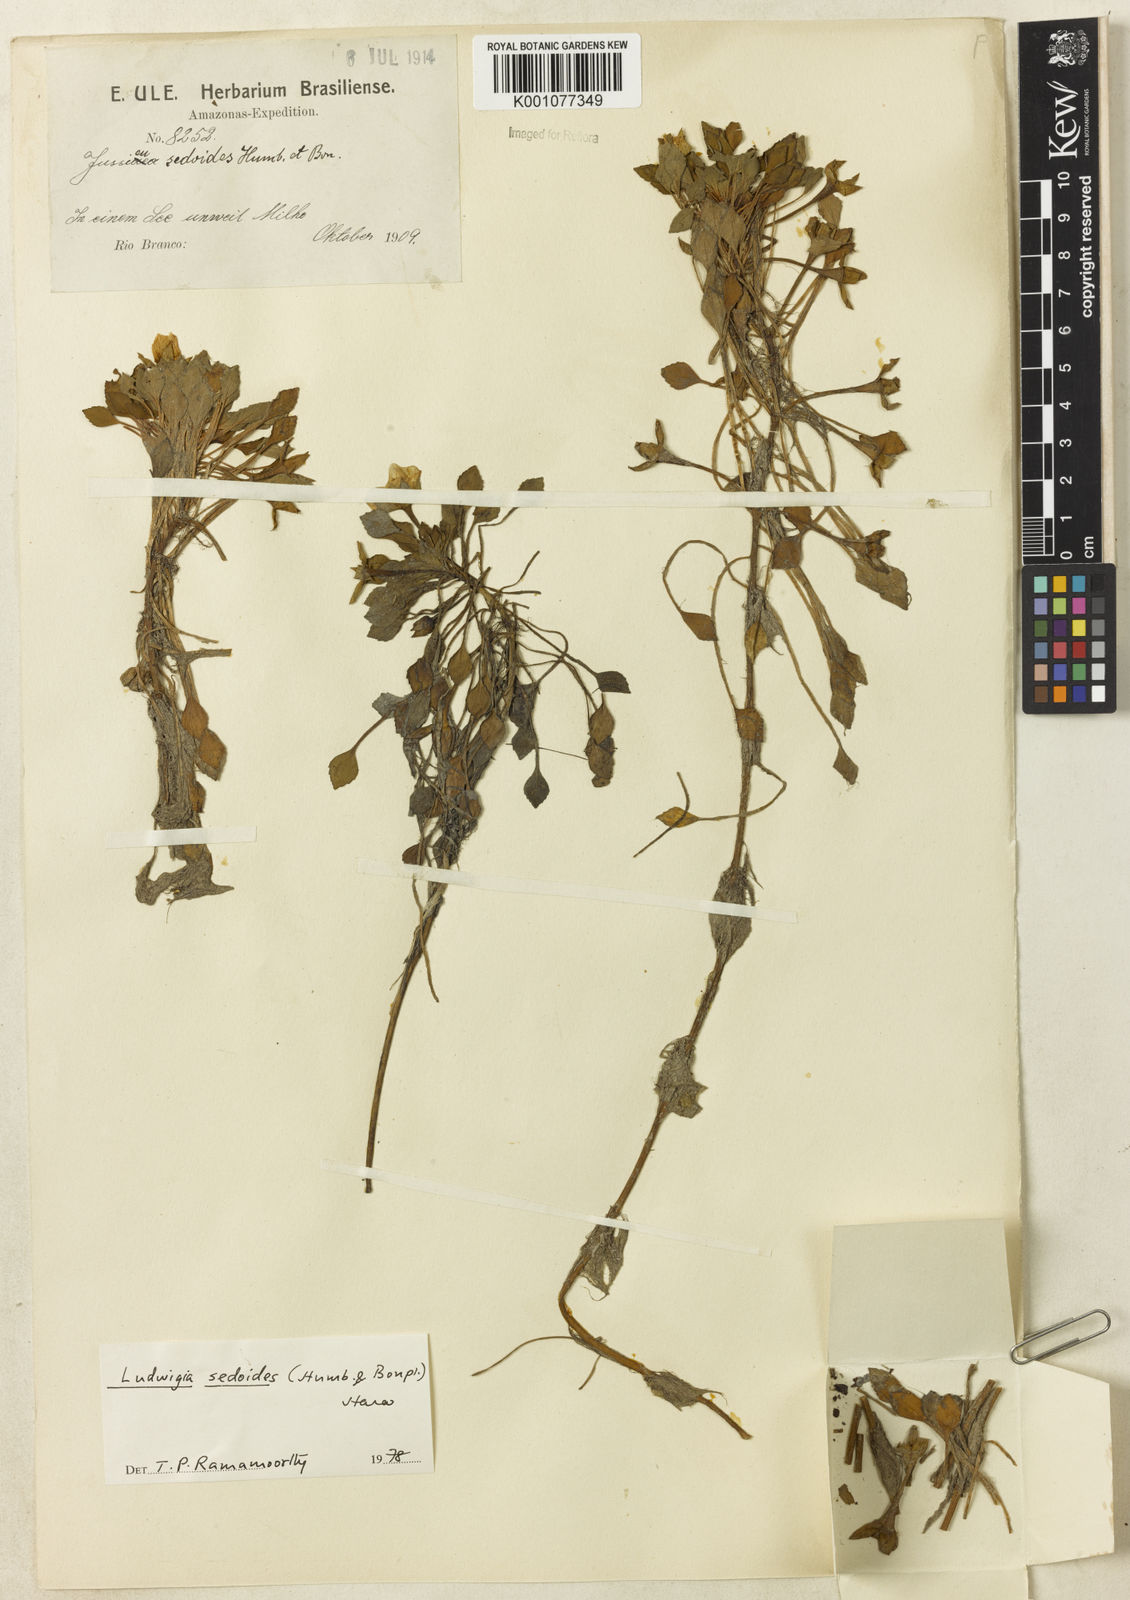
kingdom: Plantae
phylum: Tracheophyta
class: Magnoliopsida
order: Myrtales
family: Onagraceae
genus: Ludwigia
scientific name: Ludwigia sedoides
